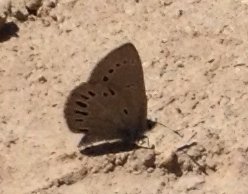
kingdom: Animalia
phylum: Arthropoda
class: Insecta
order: Lepidoptera
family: Lycaenidae
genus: Glaucopsyche
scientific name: Glaucopsyche lygdamus
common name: Silvery Blue
